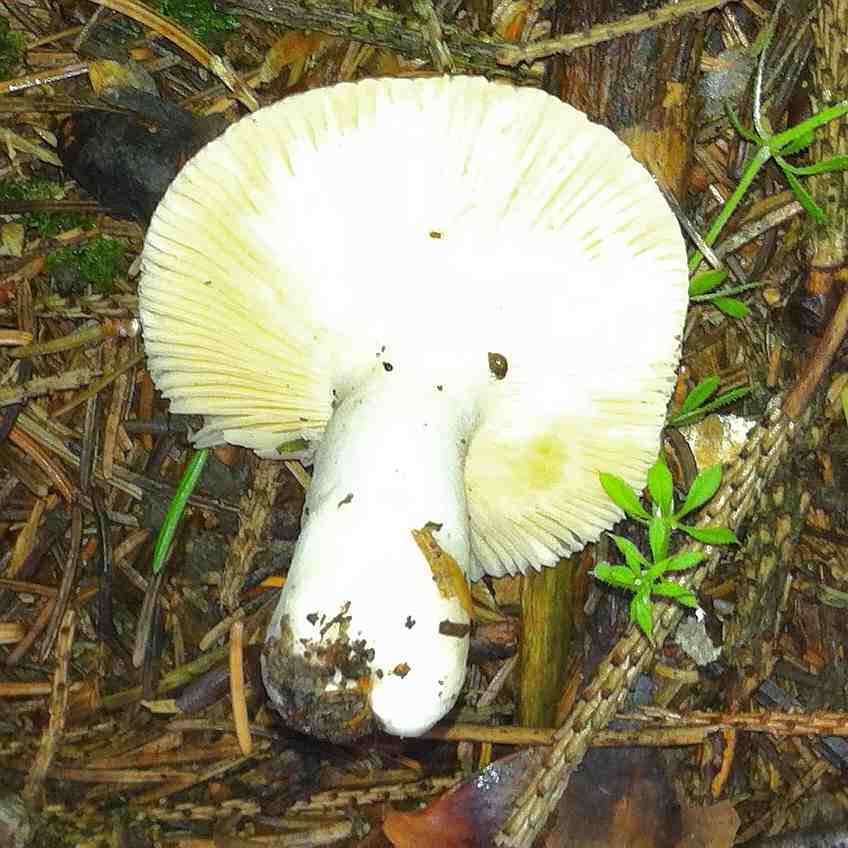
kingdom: Fungi
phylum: Basidiomycota
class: Agaricomycetes
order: Russulales
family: Russulaceae
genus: Russula
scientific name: Russula nauseosa
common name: spinkel skørhat
